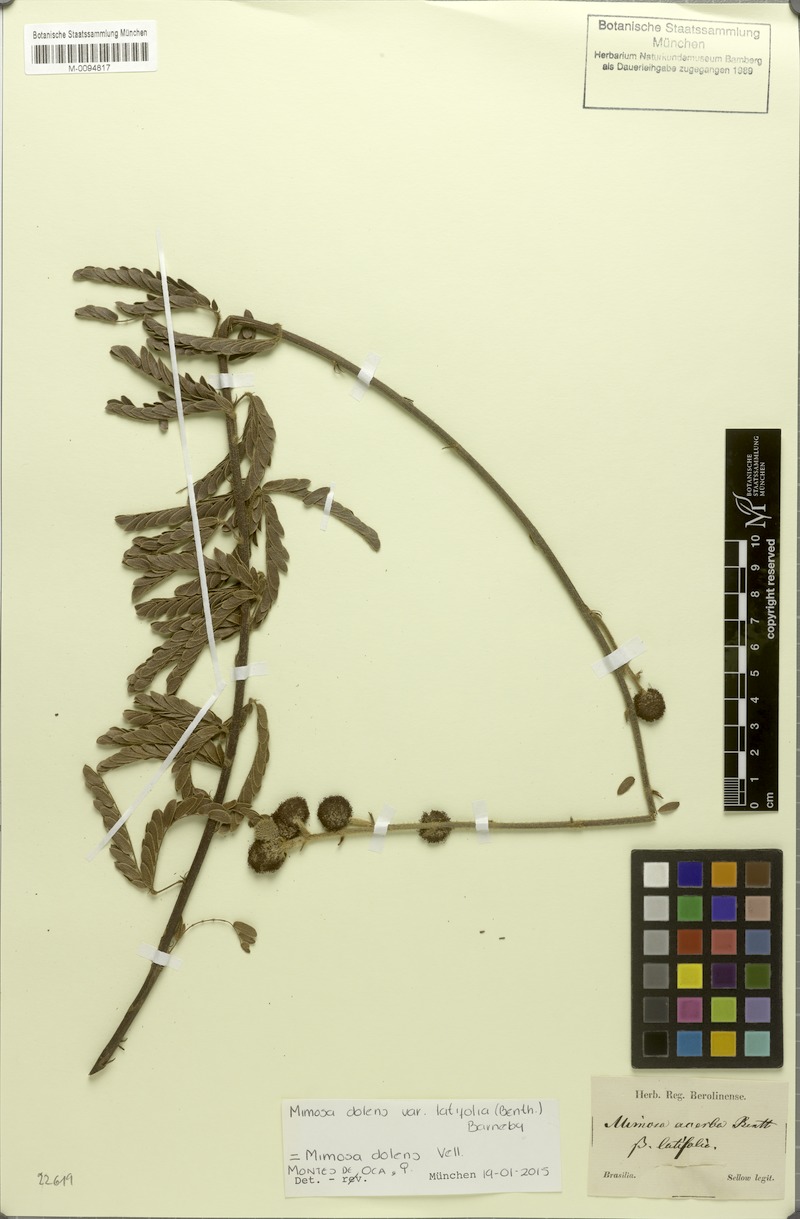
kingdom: Plantae
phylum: Tracheophyta
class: Magnoliopsida
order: Fabales
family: Fabaceae
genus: Mimosa
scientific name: Mimosa dolens
